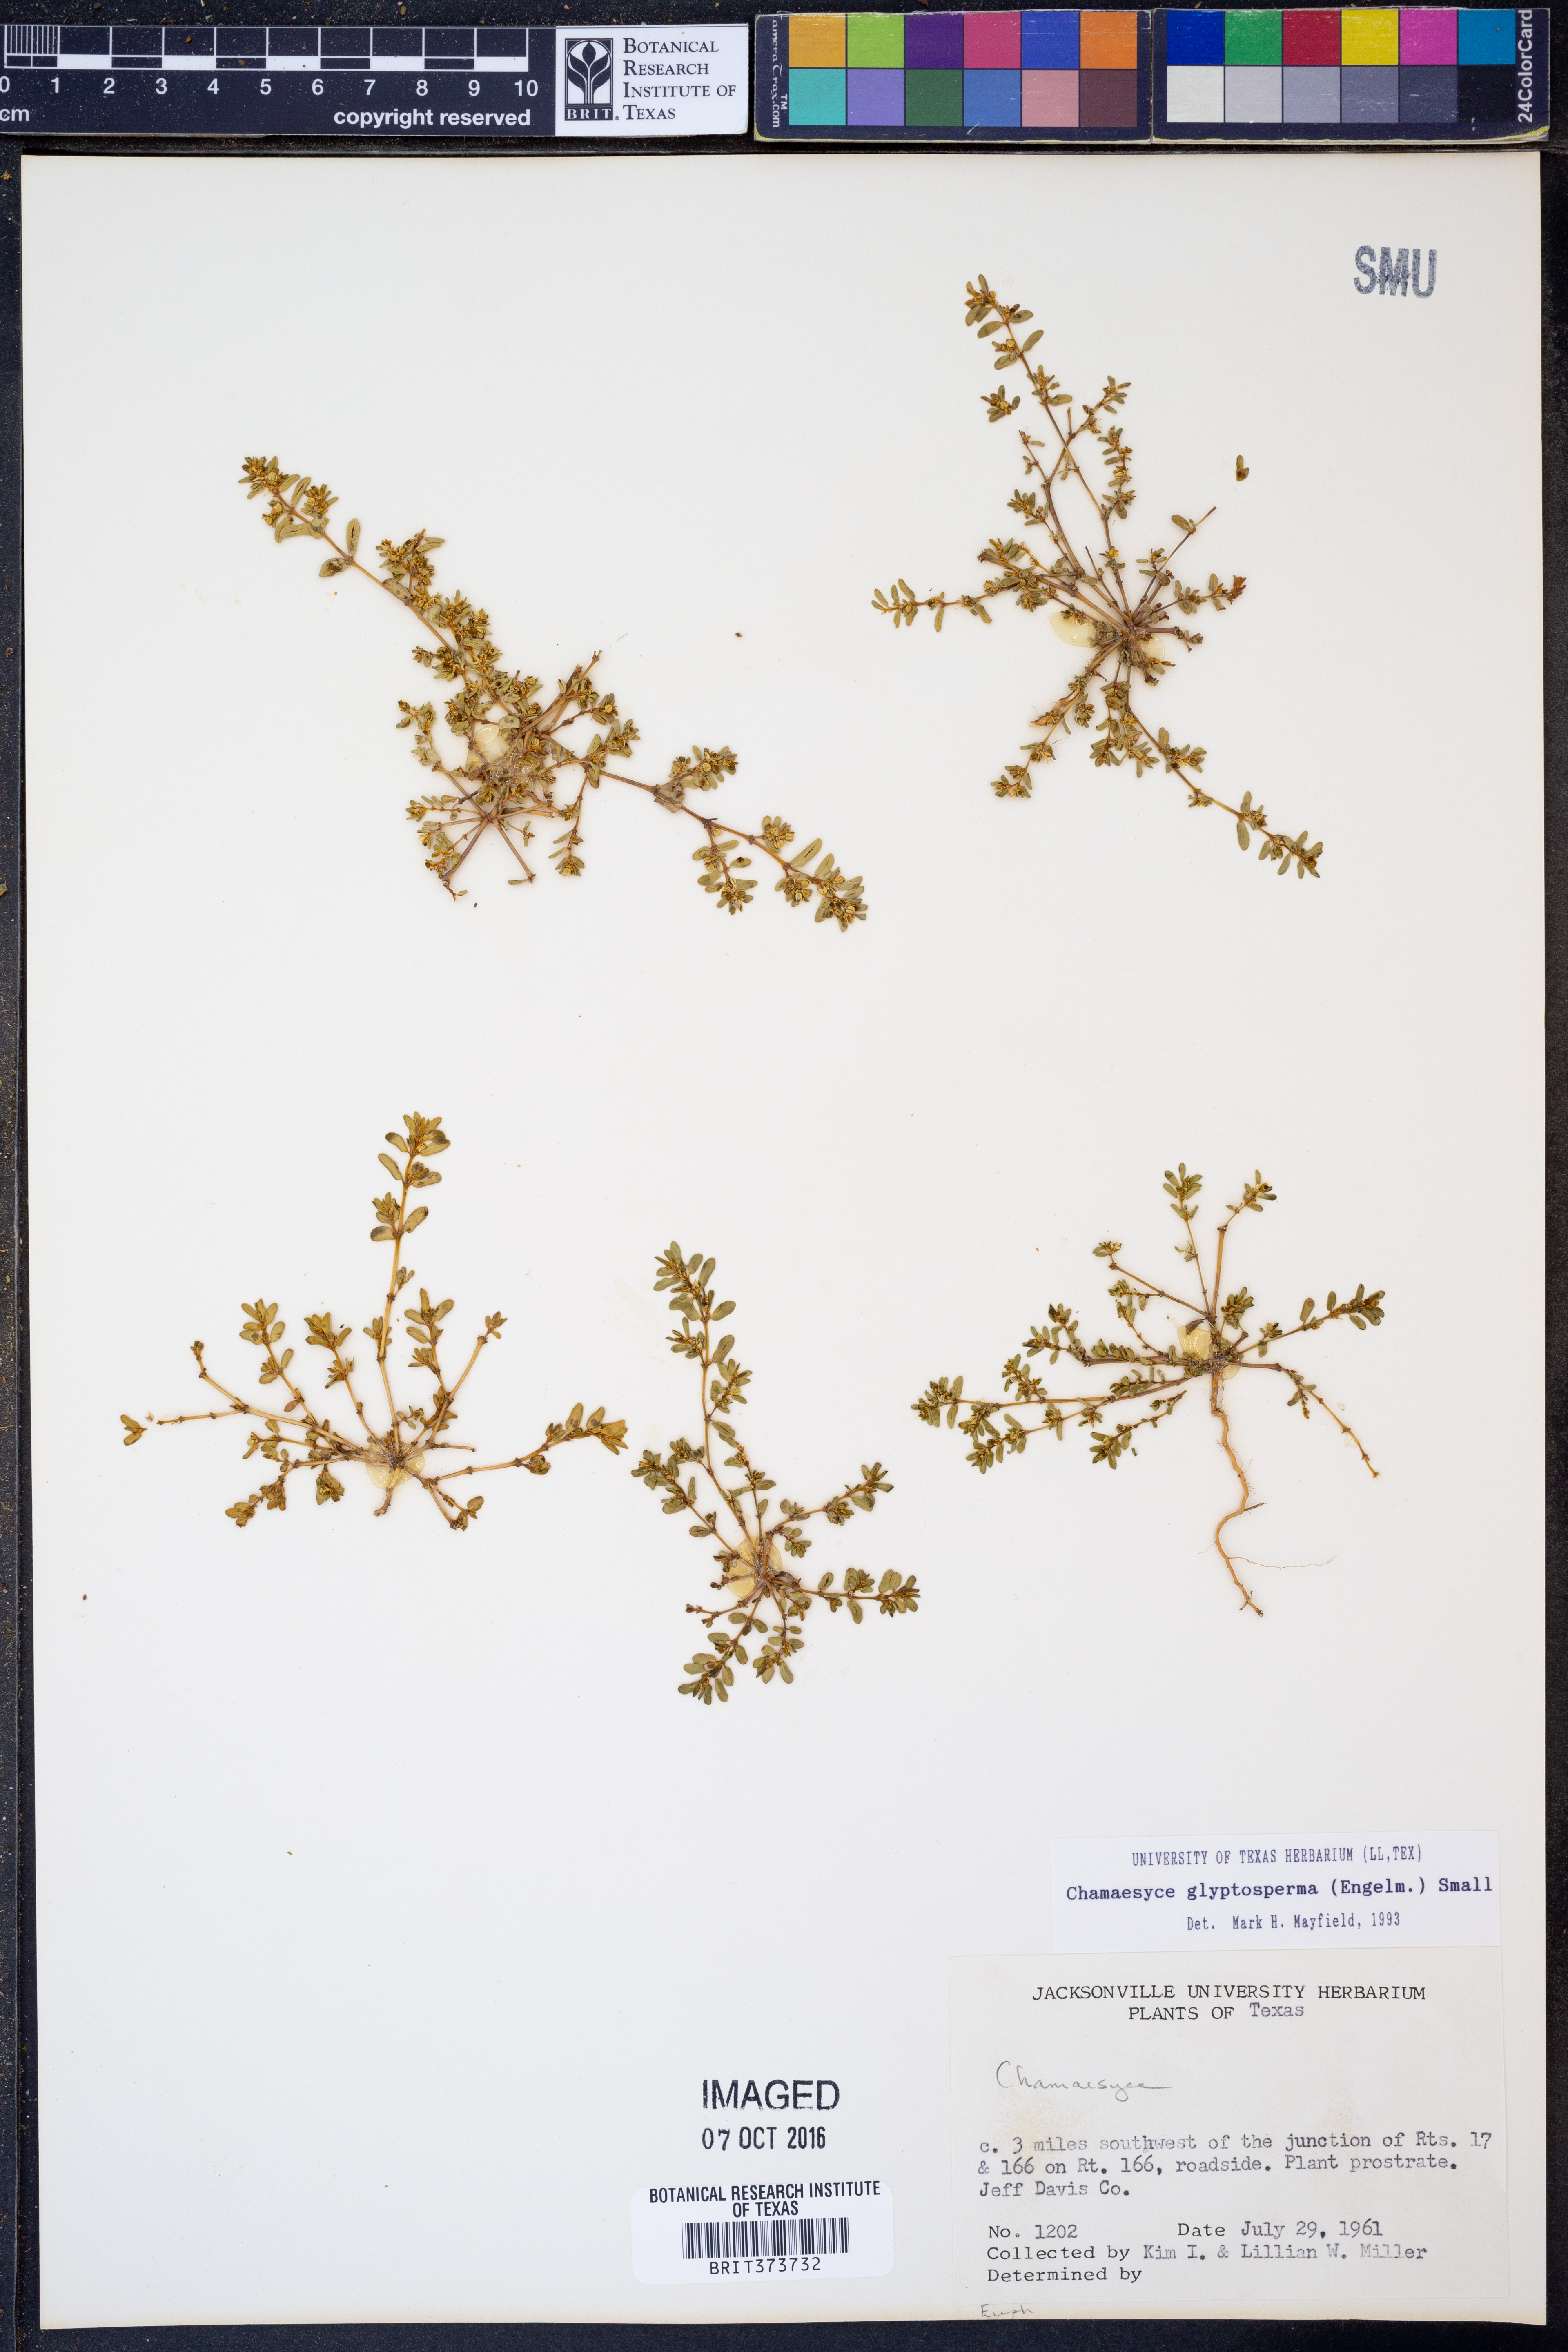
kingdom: Plantae
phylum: Tracheophyta
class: Magnoliopsida
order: Malpighiales
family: Euphorbiaceae
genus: Euphorbia
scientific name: Euphorbia glyptosperma
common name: Corrugate-seeded spurge
